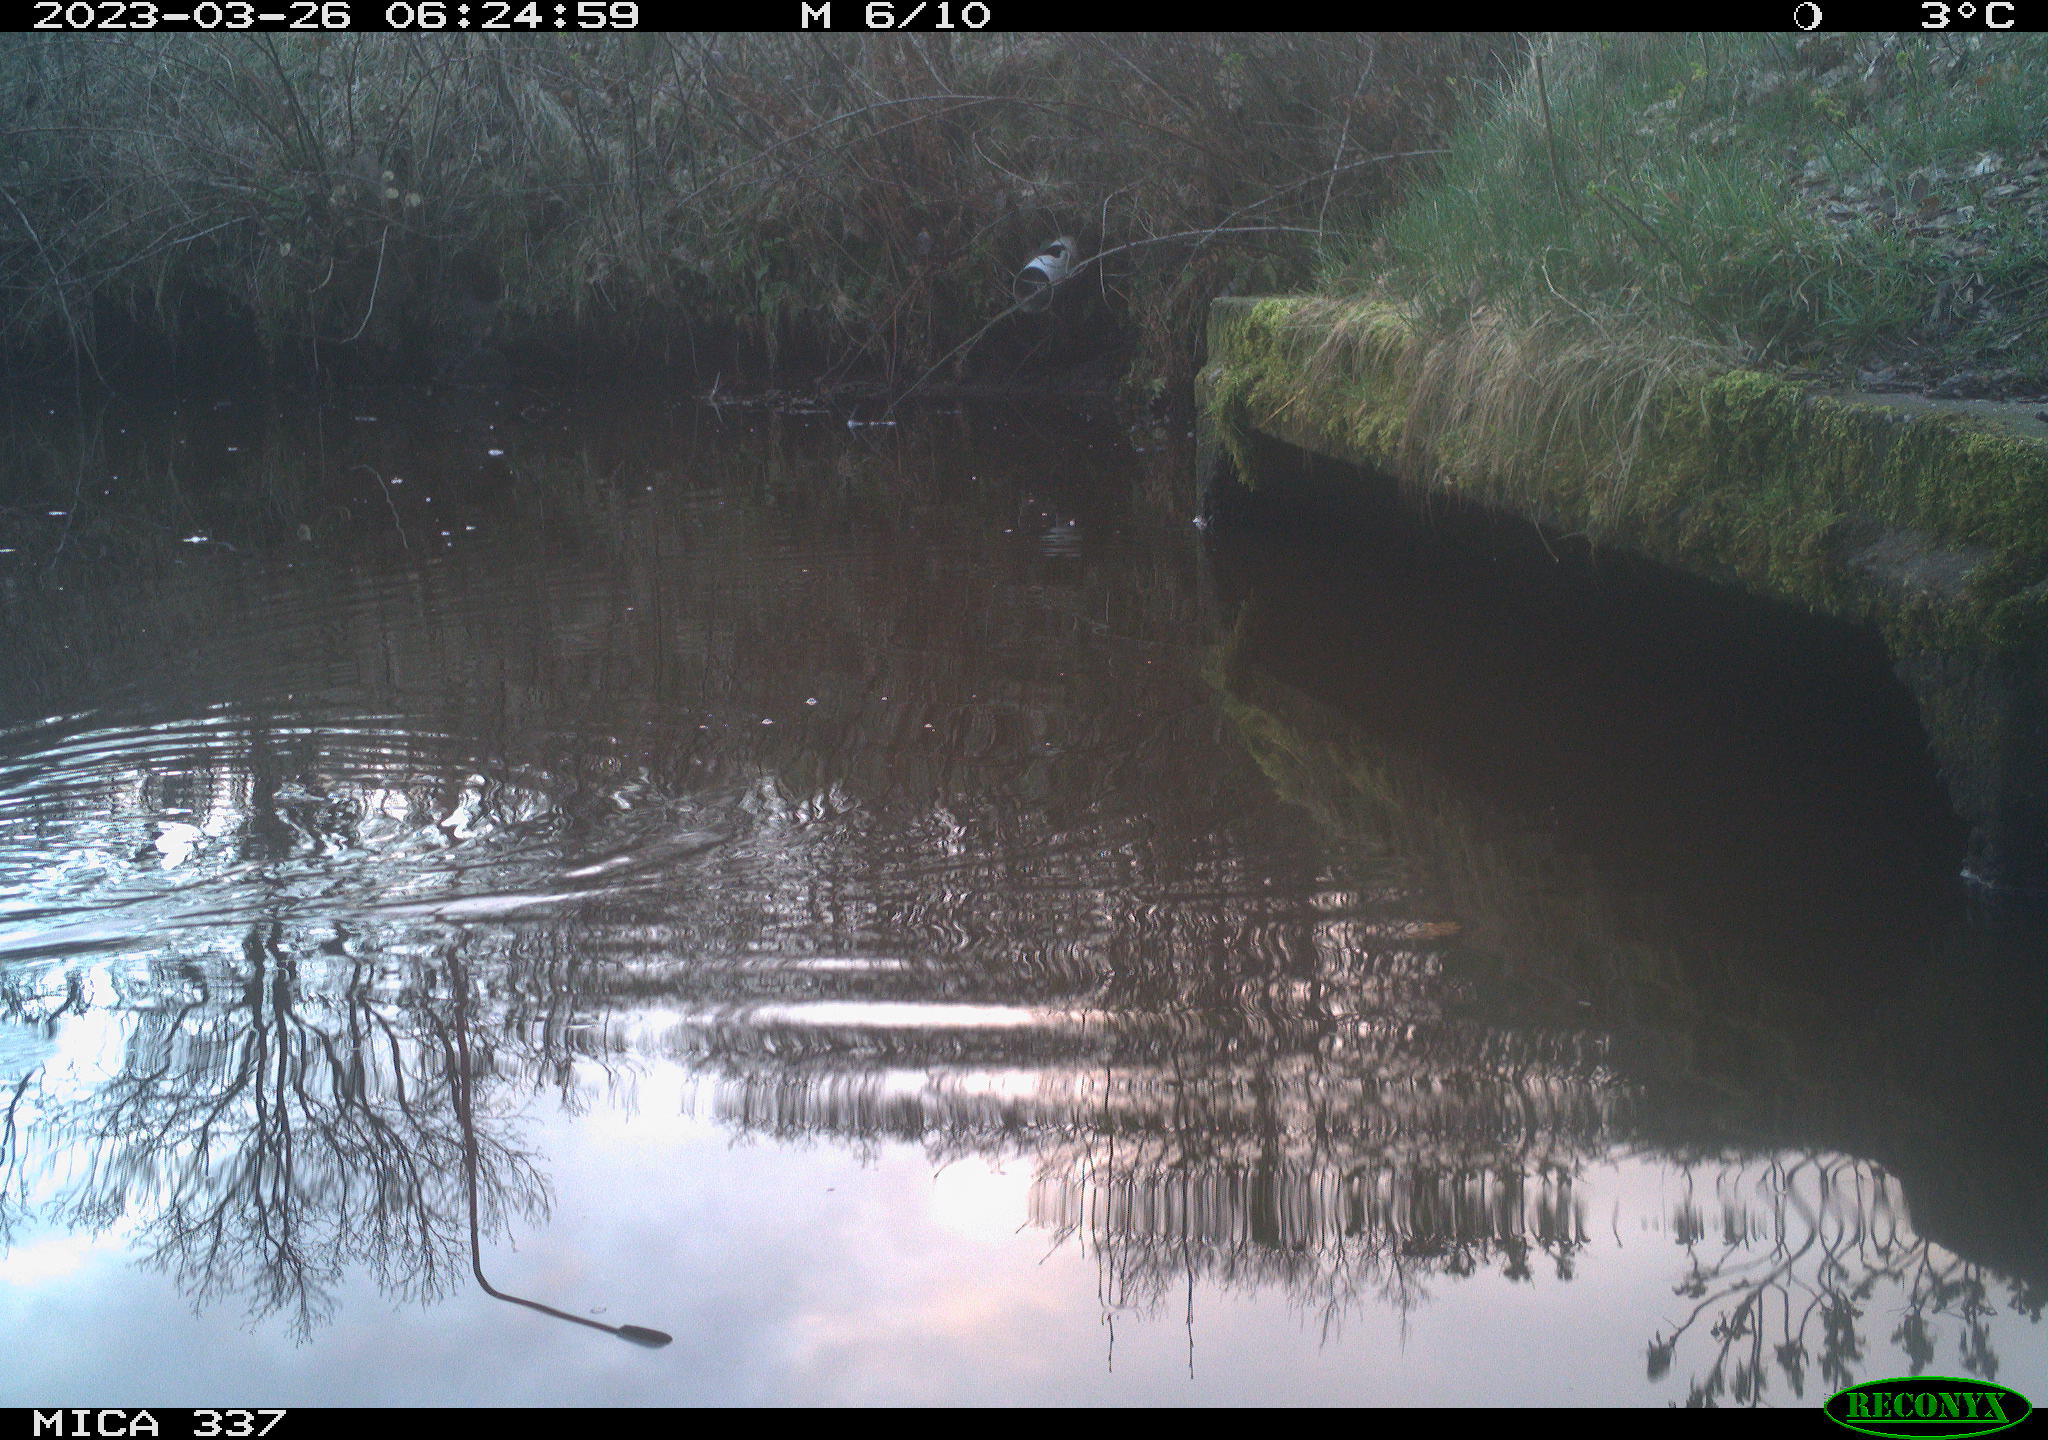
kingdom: Animalia
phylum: Chordata
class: Aves
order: Gruiformes
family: Rallidae
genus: Gallinula
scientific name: Gallinula chloropus
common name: Common moorhen
